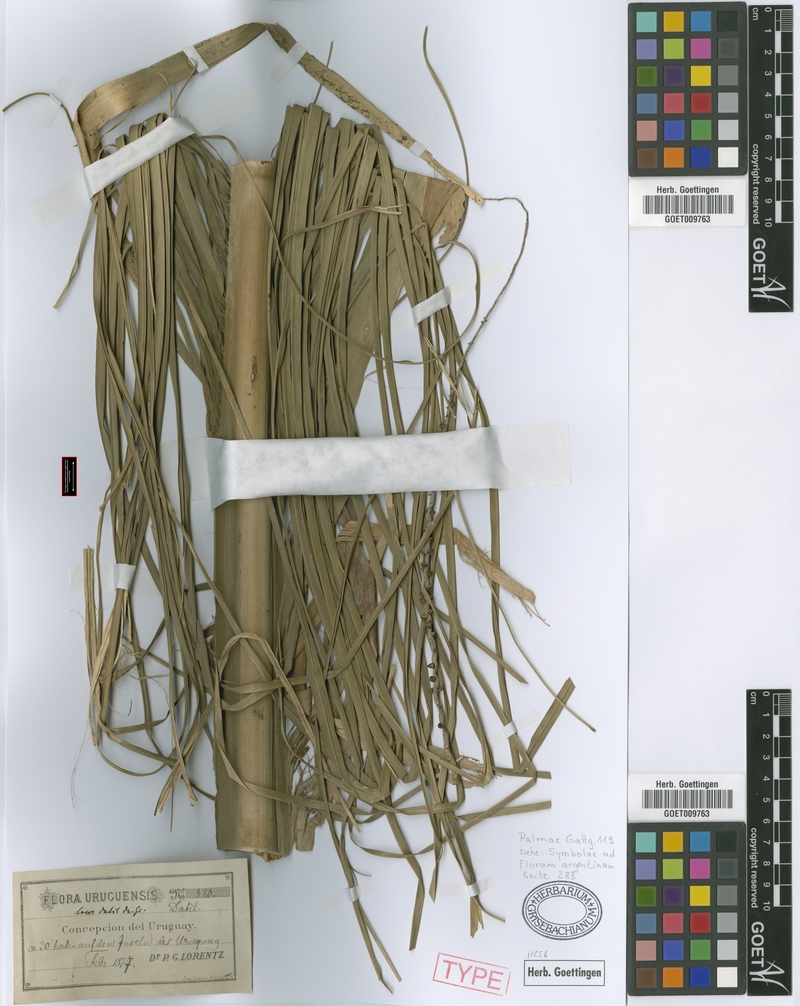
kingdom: Plantae
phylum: Tracheophyta
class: Liliopsida
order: Arecales
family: Arecaceae
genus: Syagrus
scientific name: Syagrus romanzoffiana
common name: Queen palm
